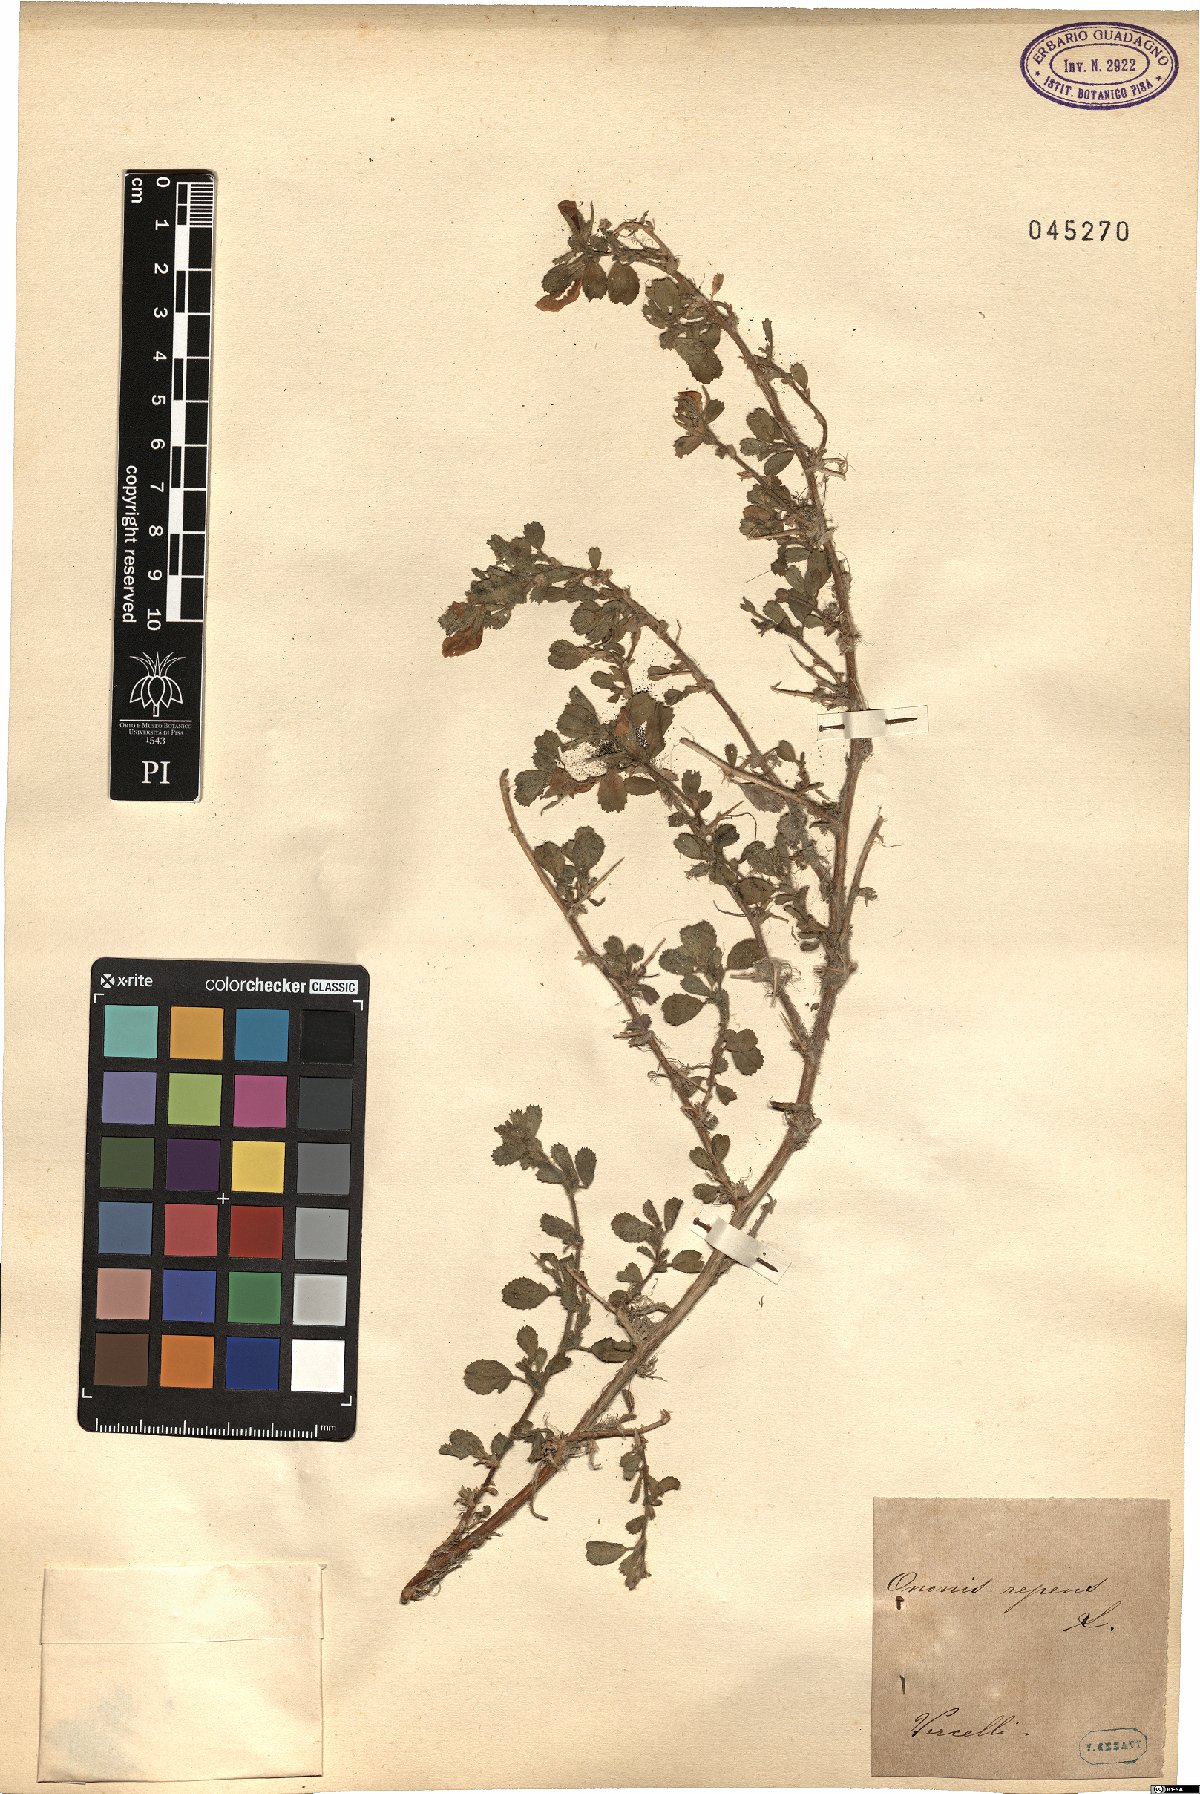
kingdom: Plantae
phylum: Tracheophyta
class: Magnoliopsida
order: Fabales
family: Fabaceae
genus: Ononis
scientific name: Ononis spinosa
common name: Spiny restharrow
